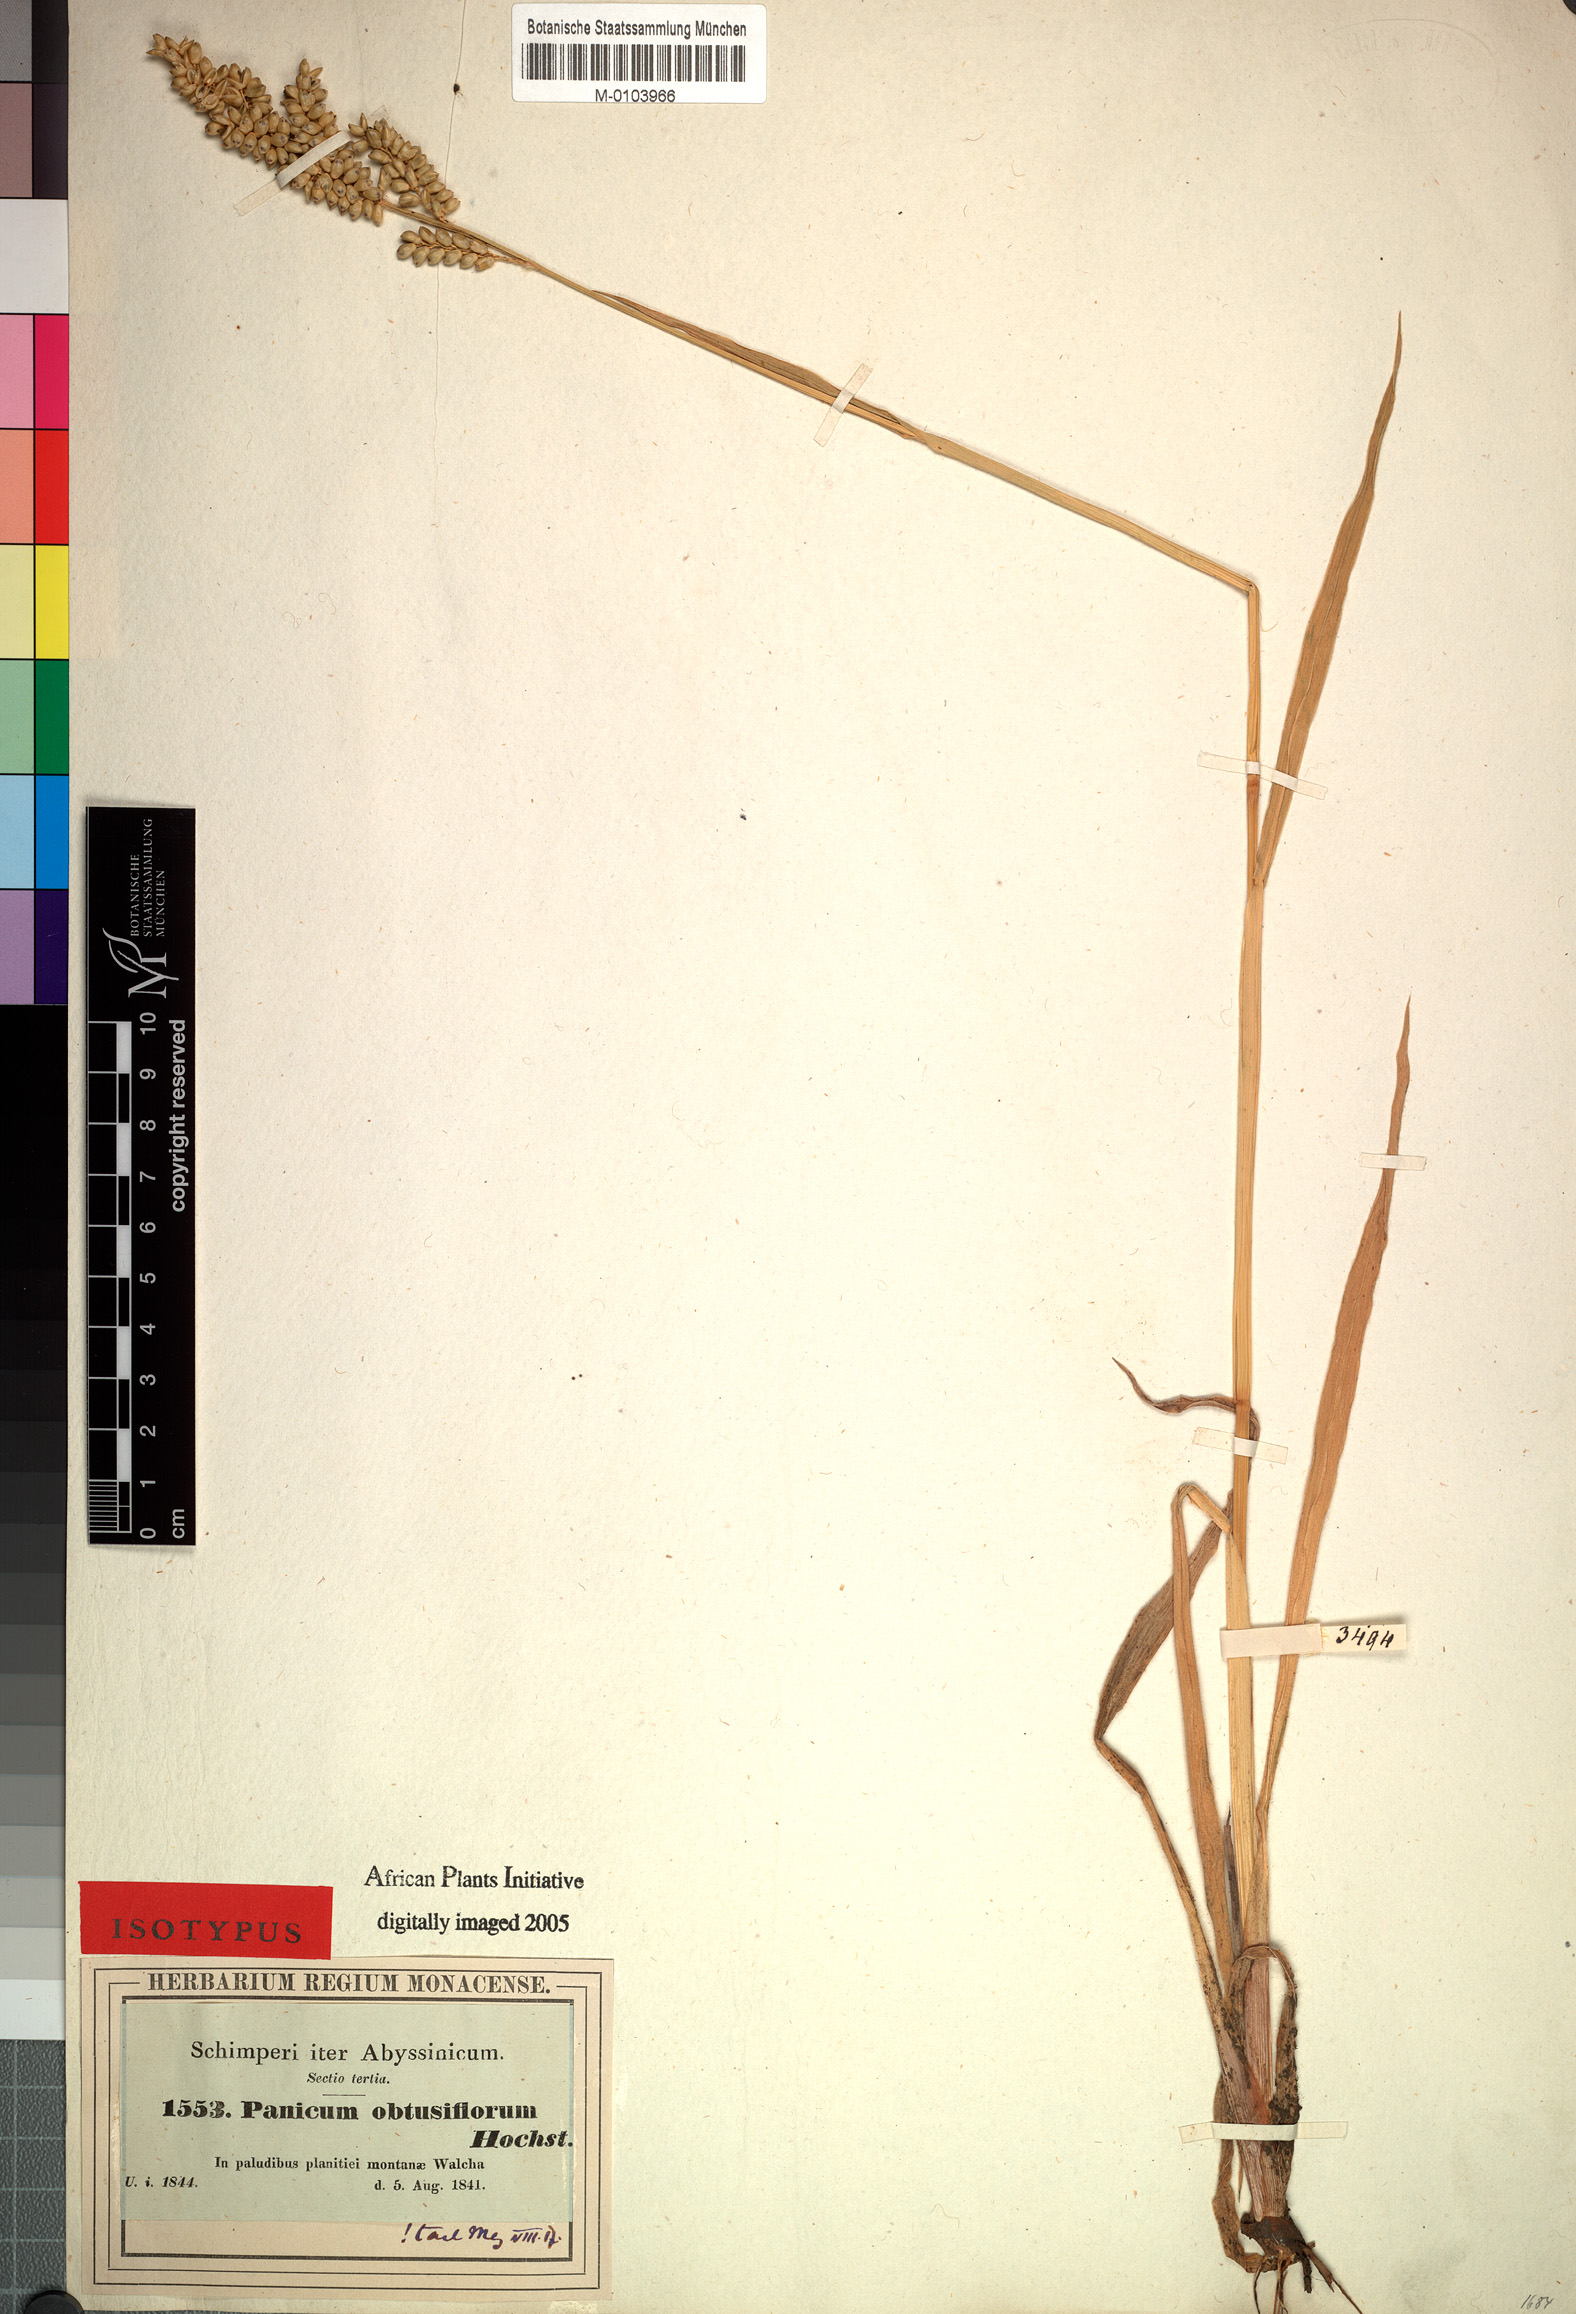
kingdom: Plantae
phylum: Tracheophyta
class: Liliopsida
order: Poales
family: Poaceae
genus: Echinochloa
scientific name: Echinochloa rotundiflora
